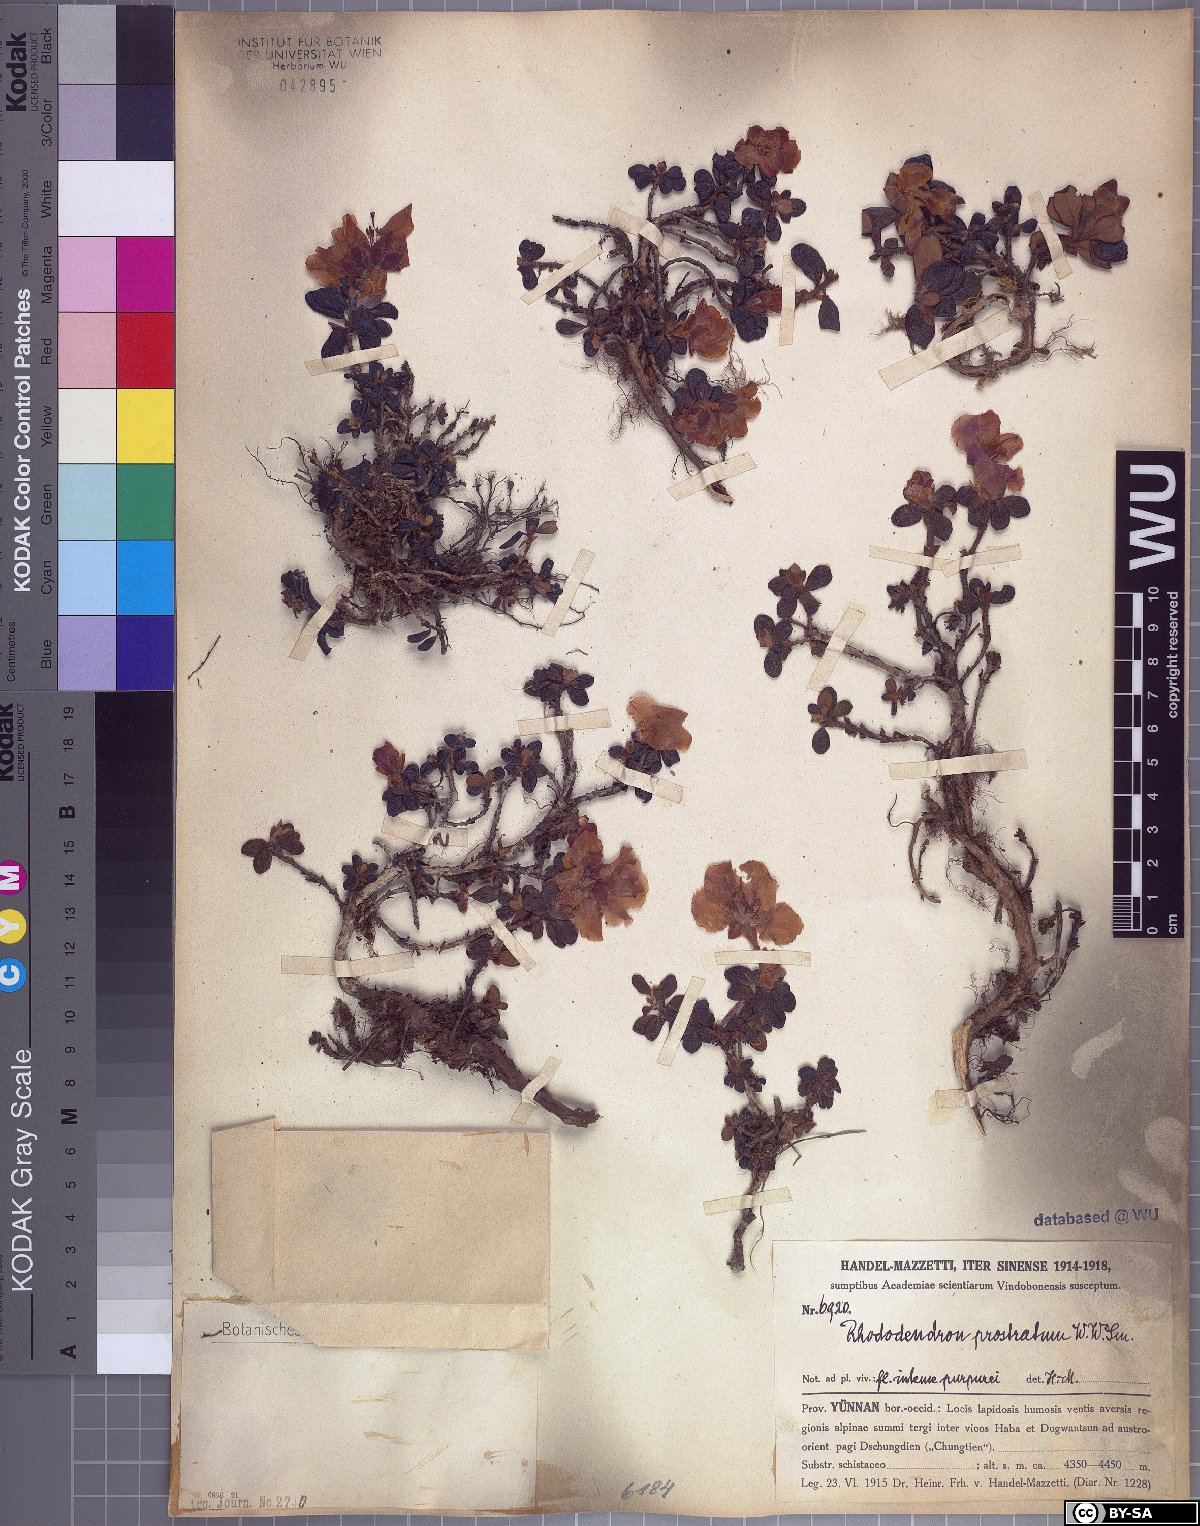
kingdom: Plantae
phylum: Tracheophyta
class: Magnoliopsida
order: Ericales
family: Ericaceae
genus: Rhododendron
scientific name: Rhododendron saluenense
